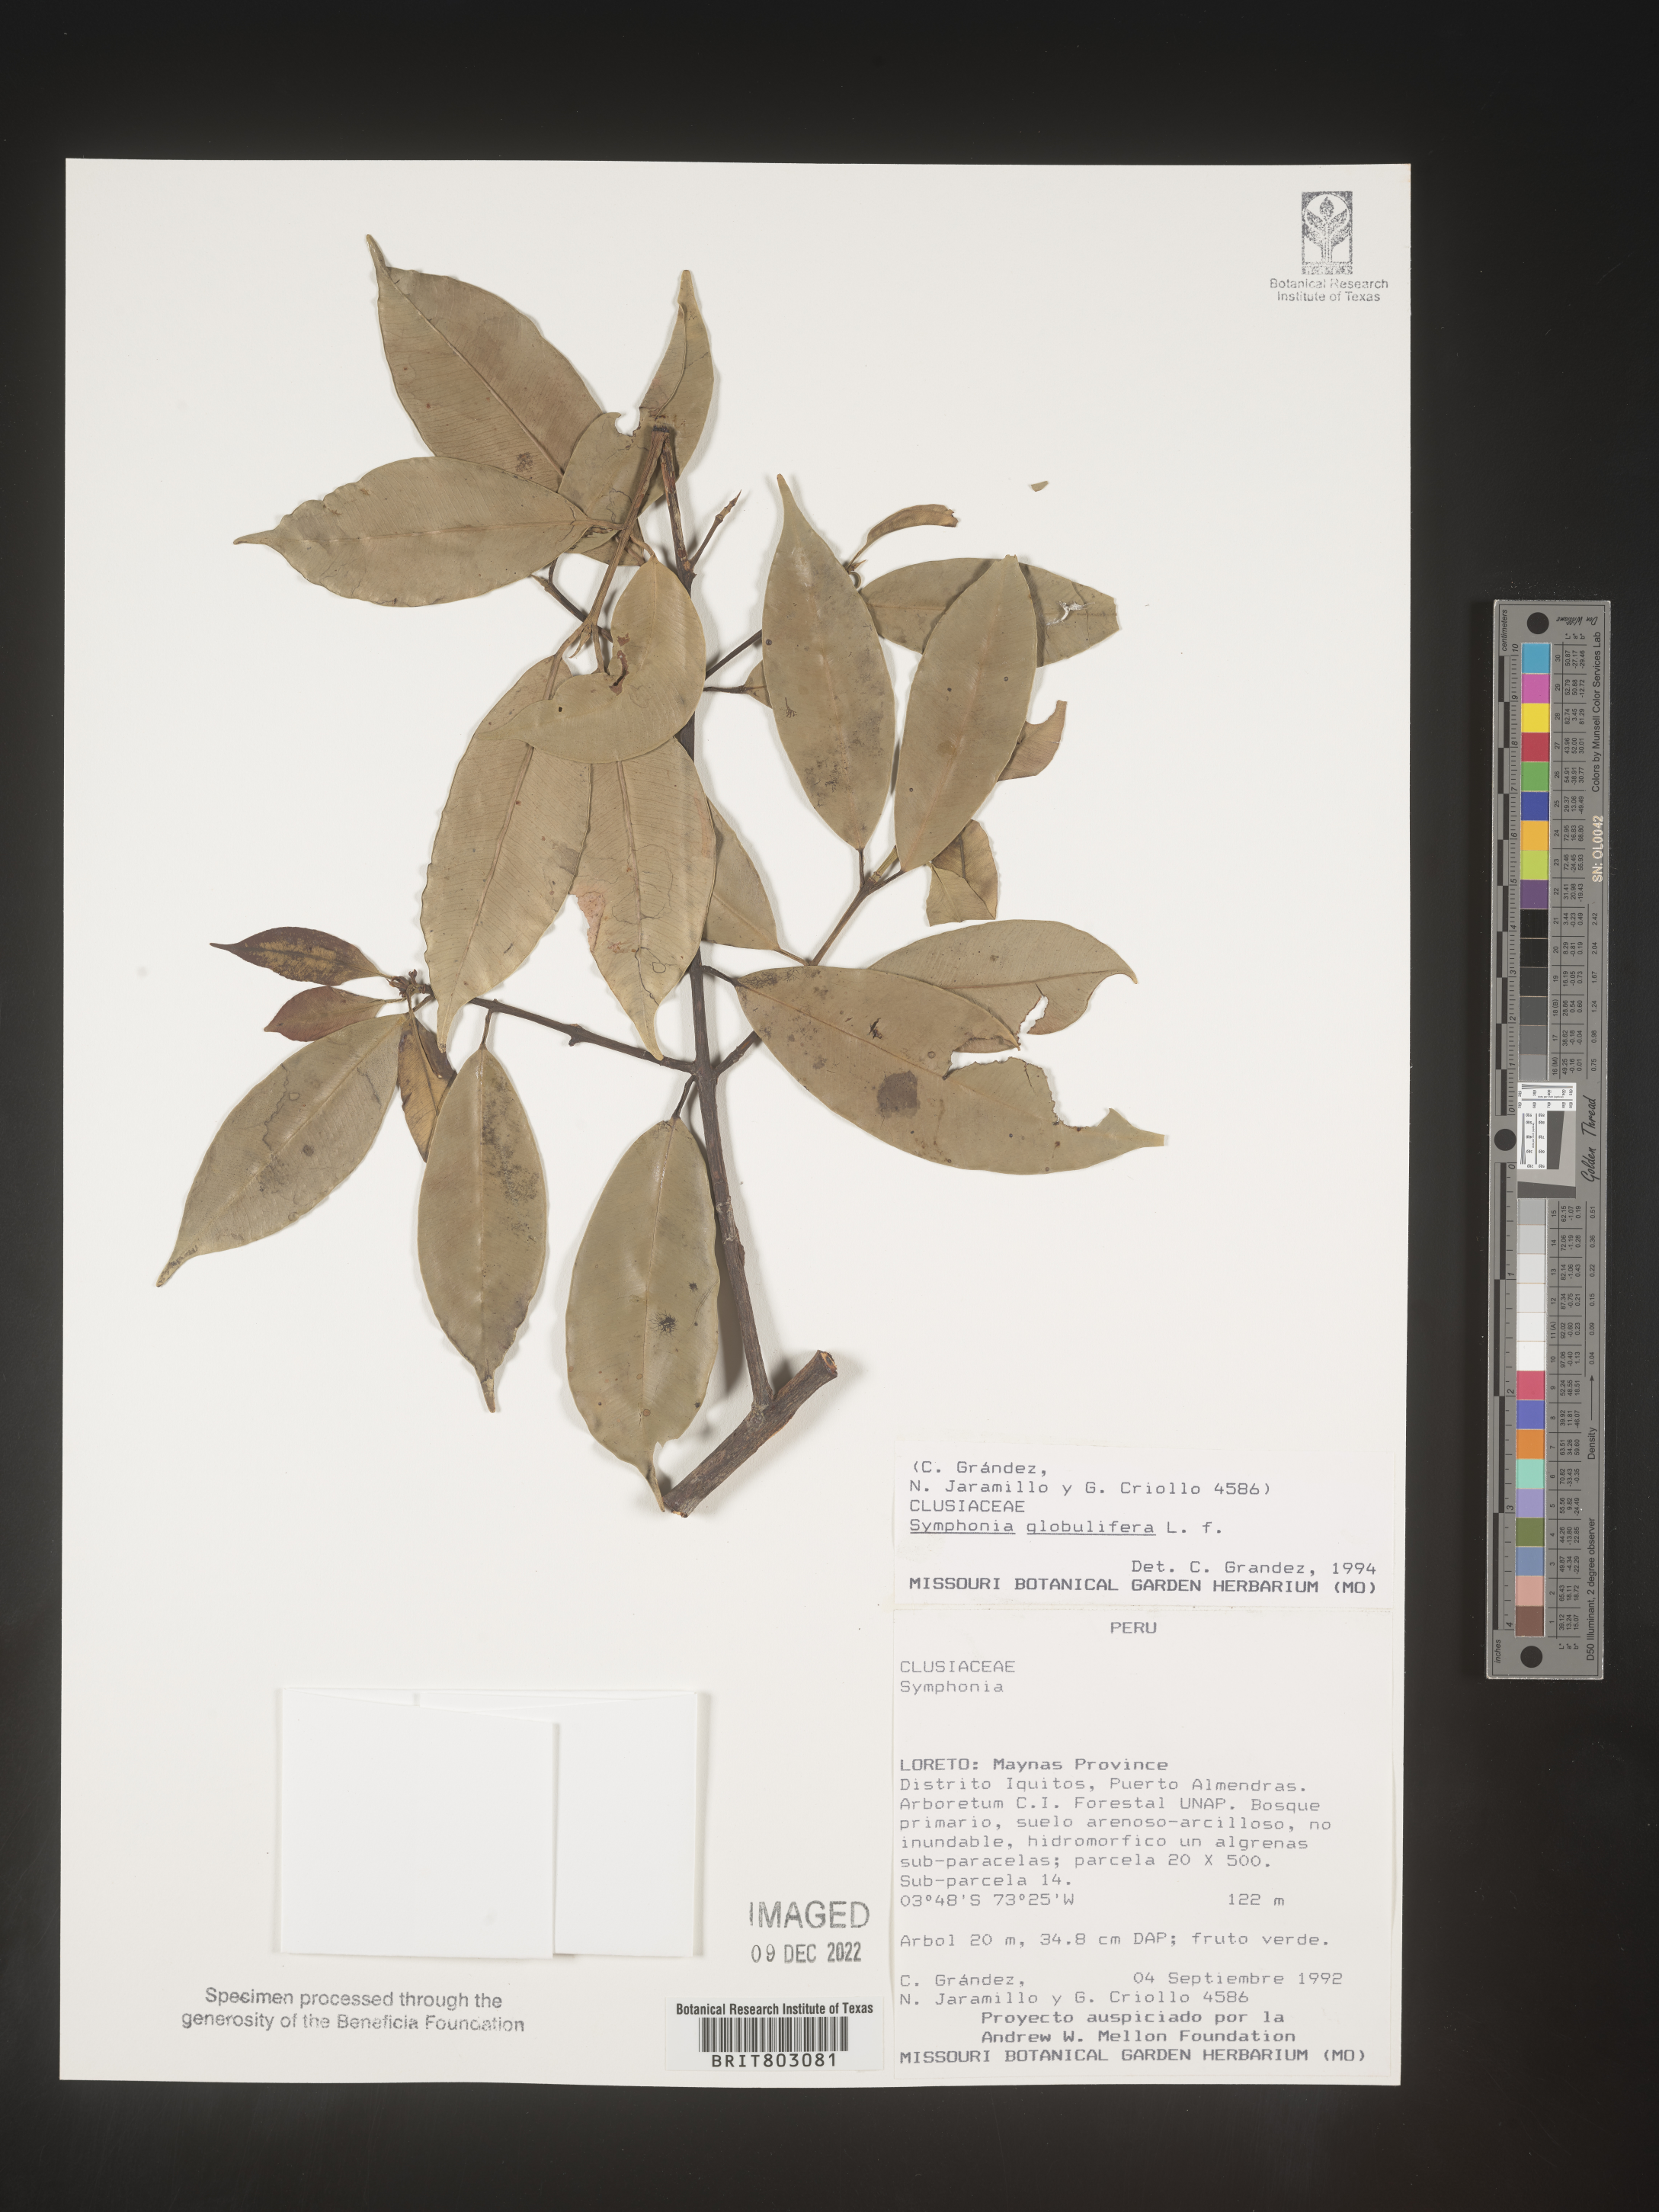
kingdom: Plantae
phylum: Tracheophyta
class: Magnoliopsida
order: Malpighiales
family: Clusiaceae
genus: Symphonia
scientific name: Symphonia
